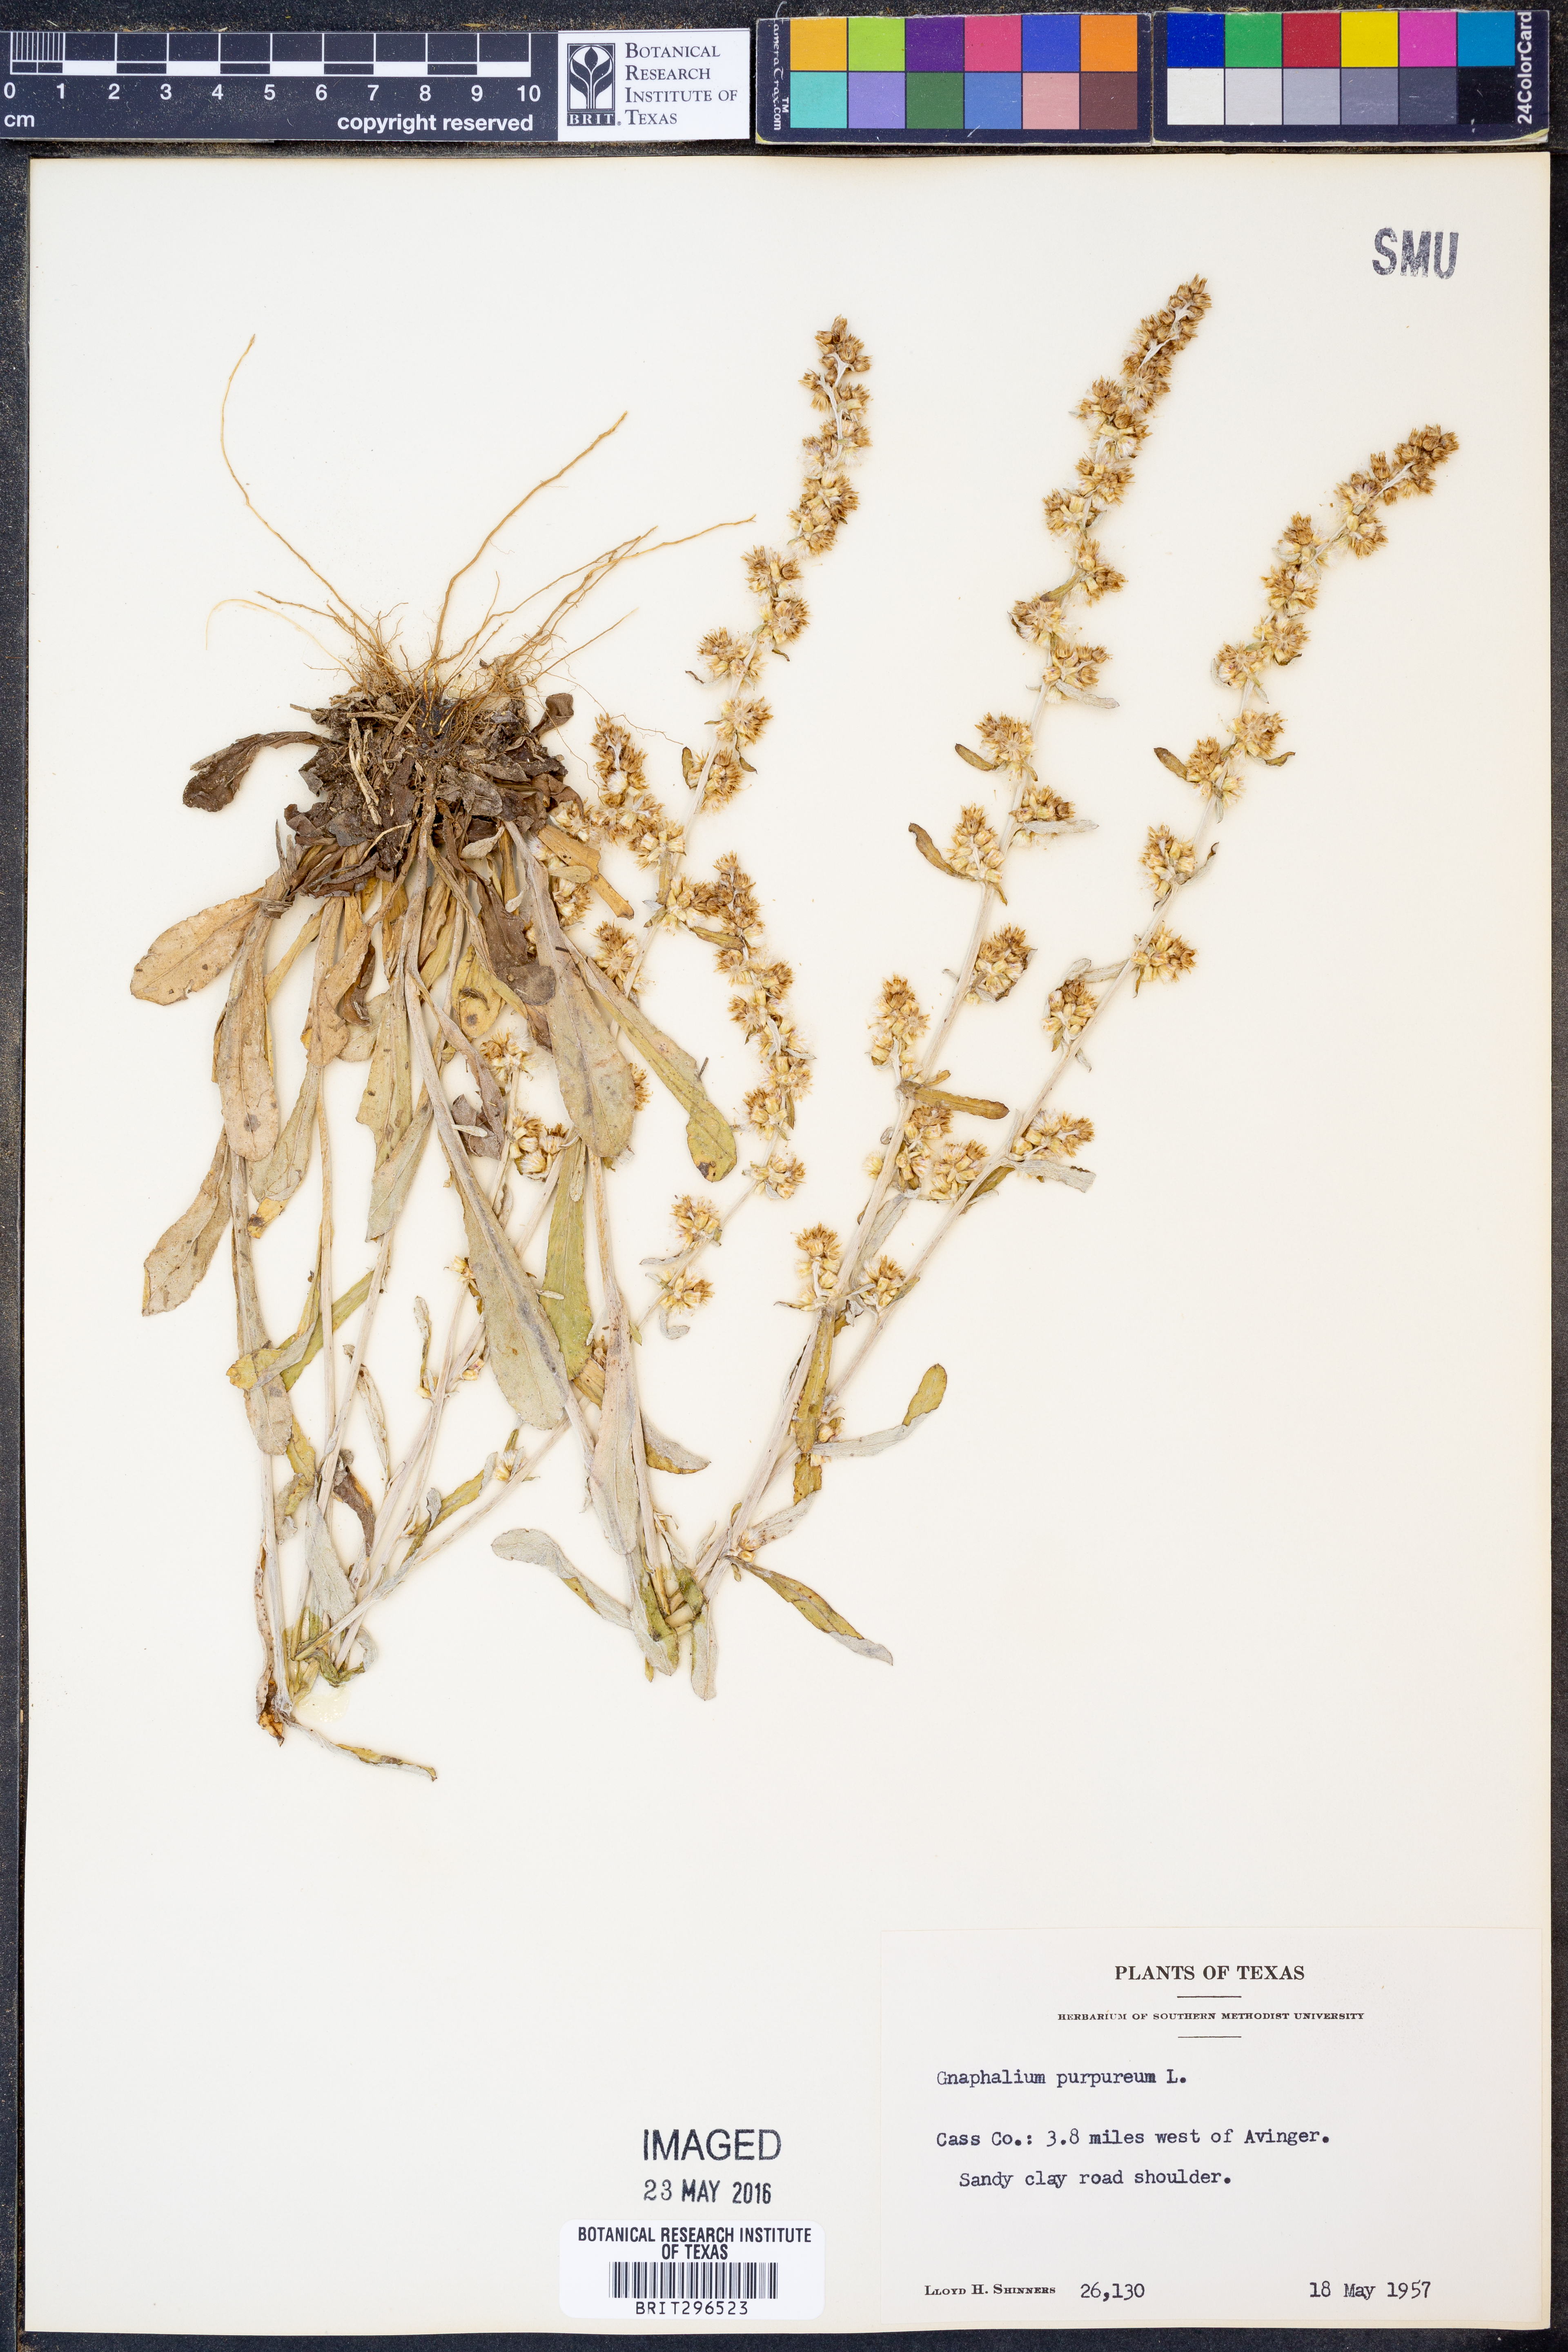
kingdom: Plantae
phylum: Tracheophyta
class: Magnoliopsida
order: Asterales
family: Asteraceae
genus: Gamochaeta
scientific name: Gamochaeta purpurea
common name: Purple cudweed
